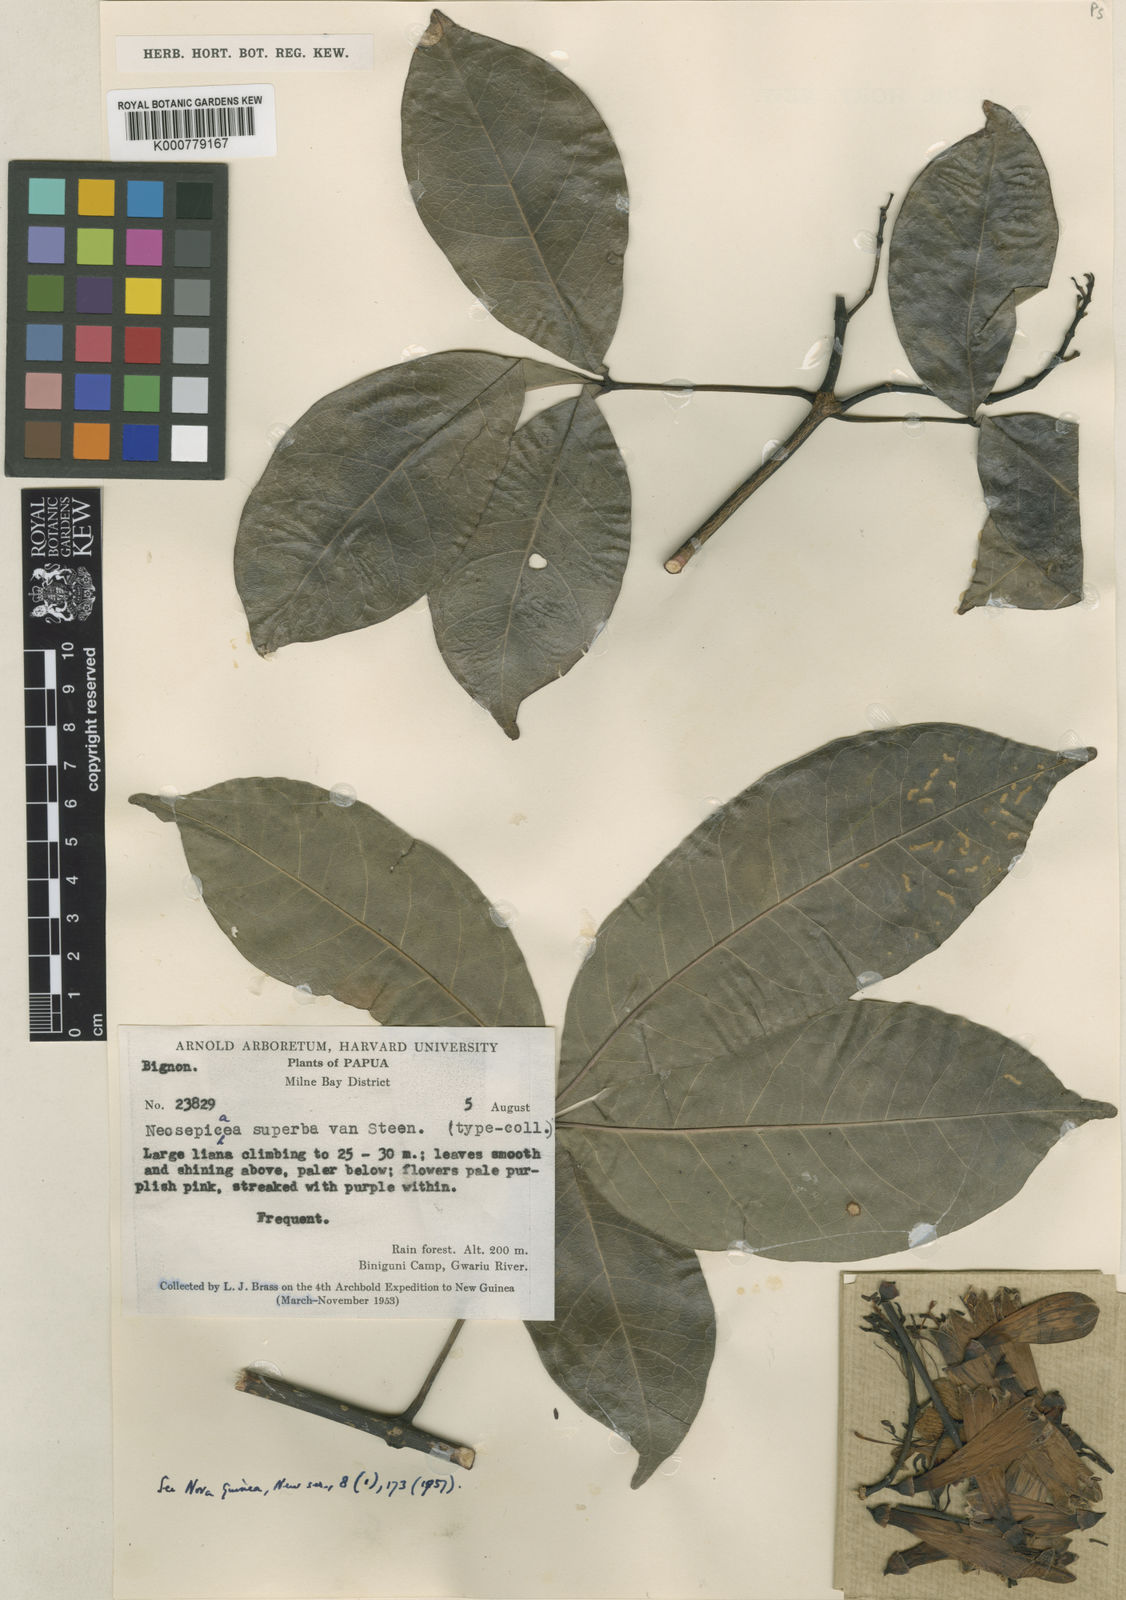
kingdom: Plantae
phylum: Tracheophyta
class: Magnoliopsida
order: Lamiales
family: Bignoniaceae
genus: Neosepicaea
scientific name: Neosepicaea leptophylla
